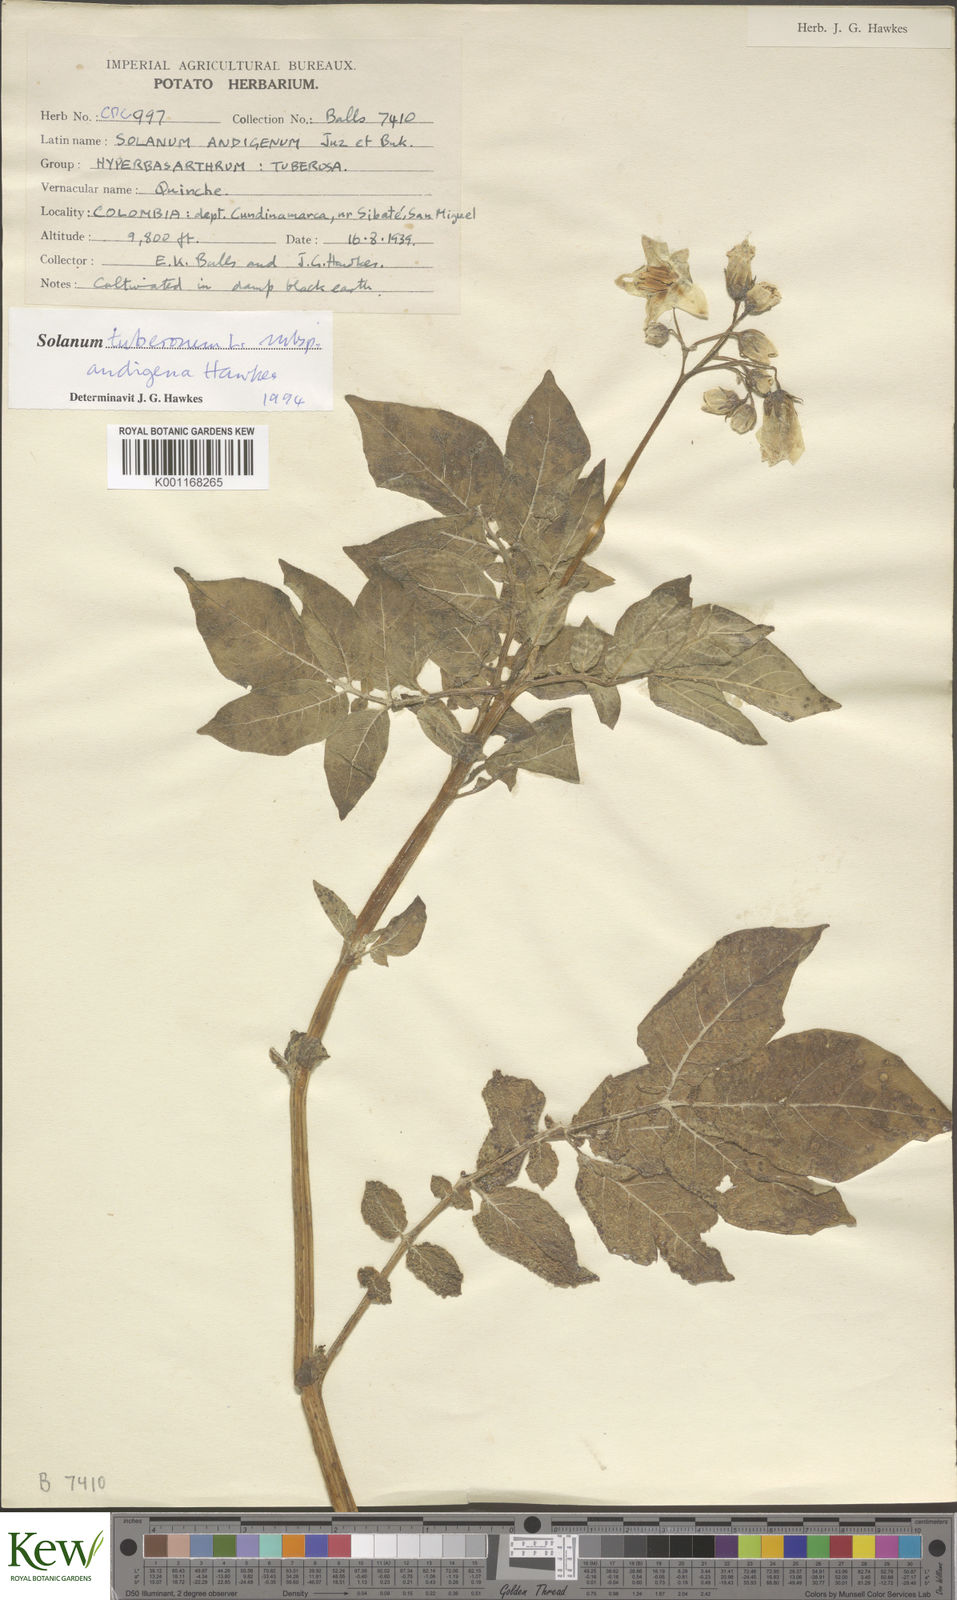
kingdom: Plantae
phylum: Tracheophyta
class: Magnoliopsida
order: Solanales
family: Solanaceae
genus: Solanum
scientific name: Solanum tuberosum
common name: Potato
